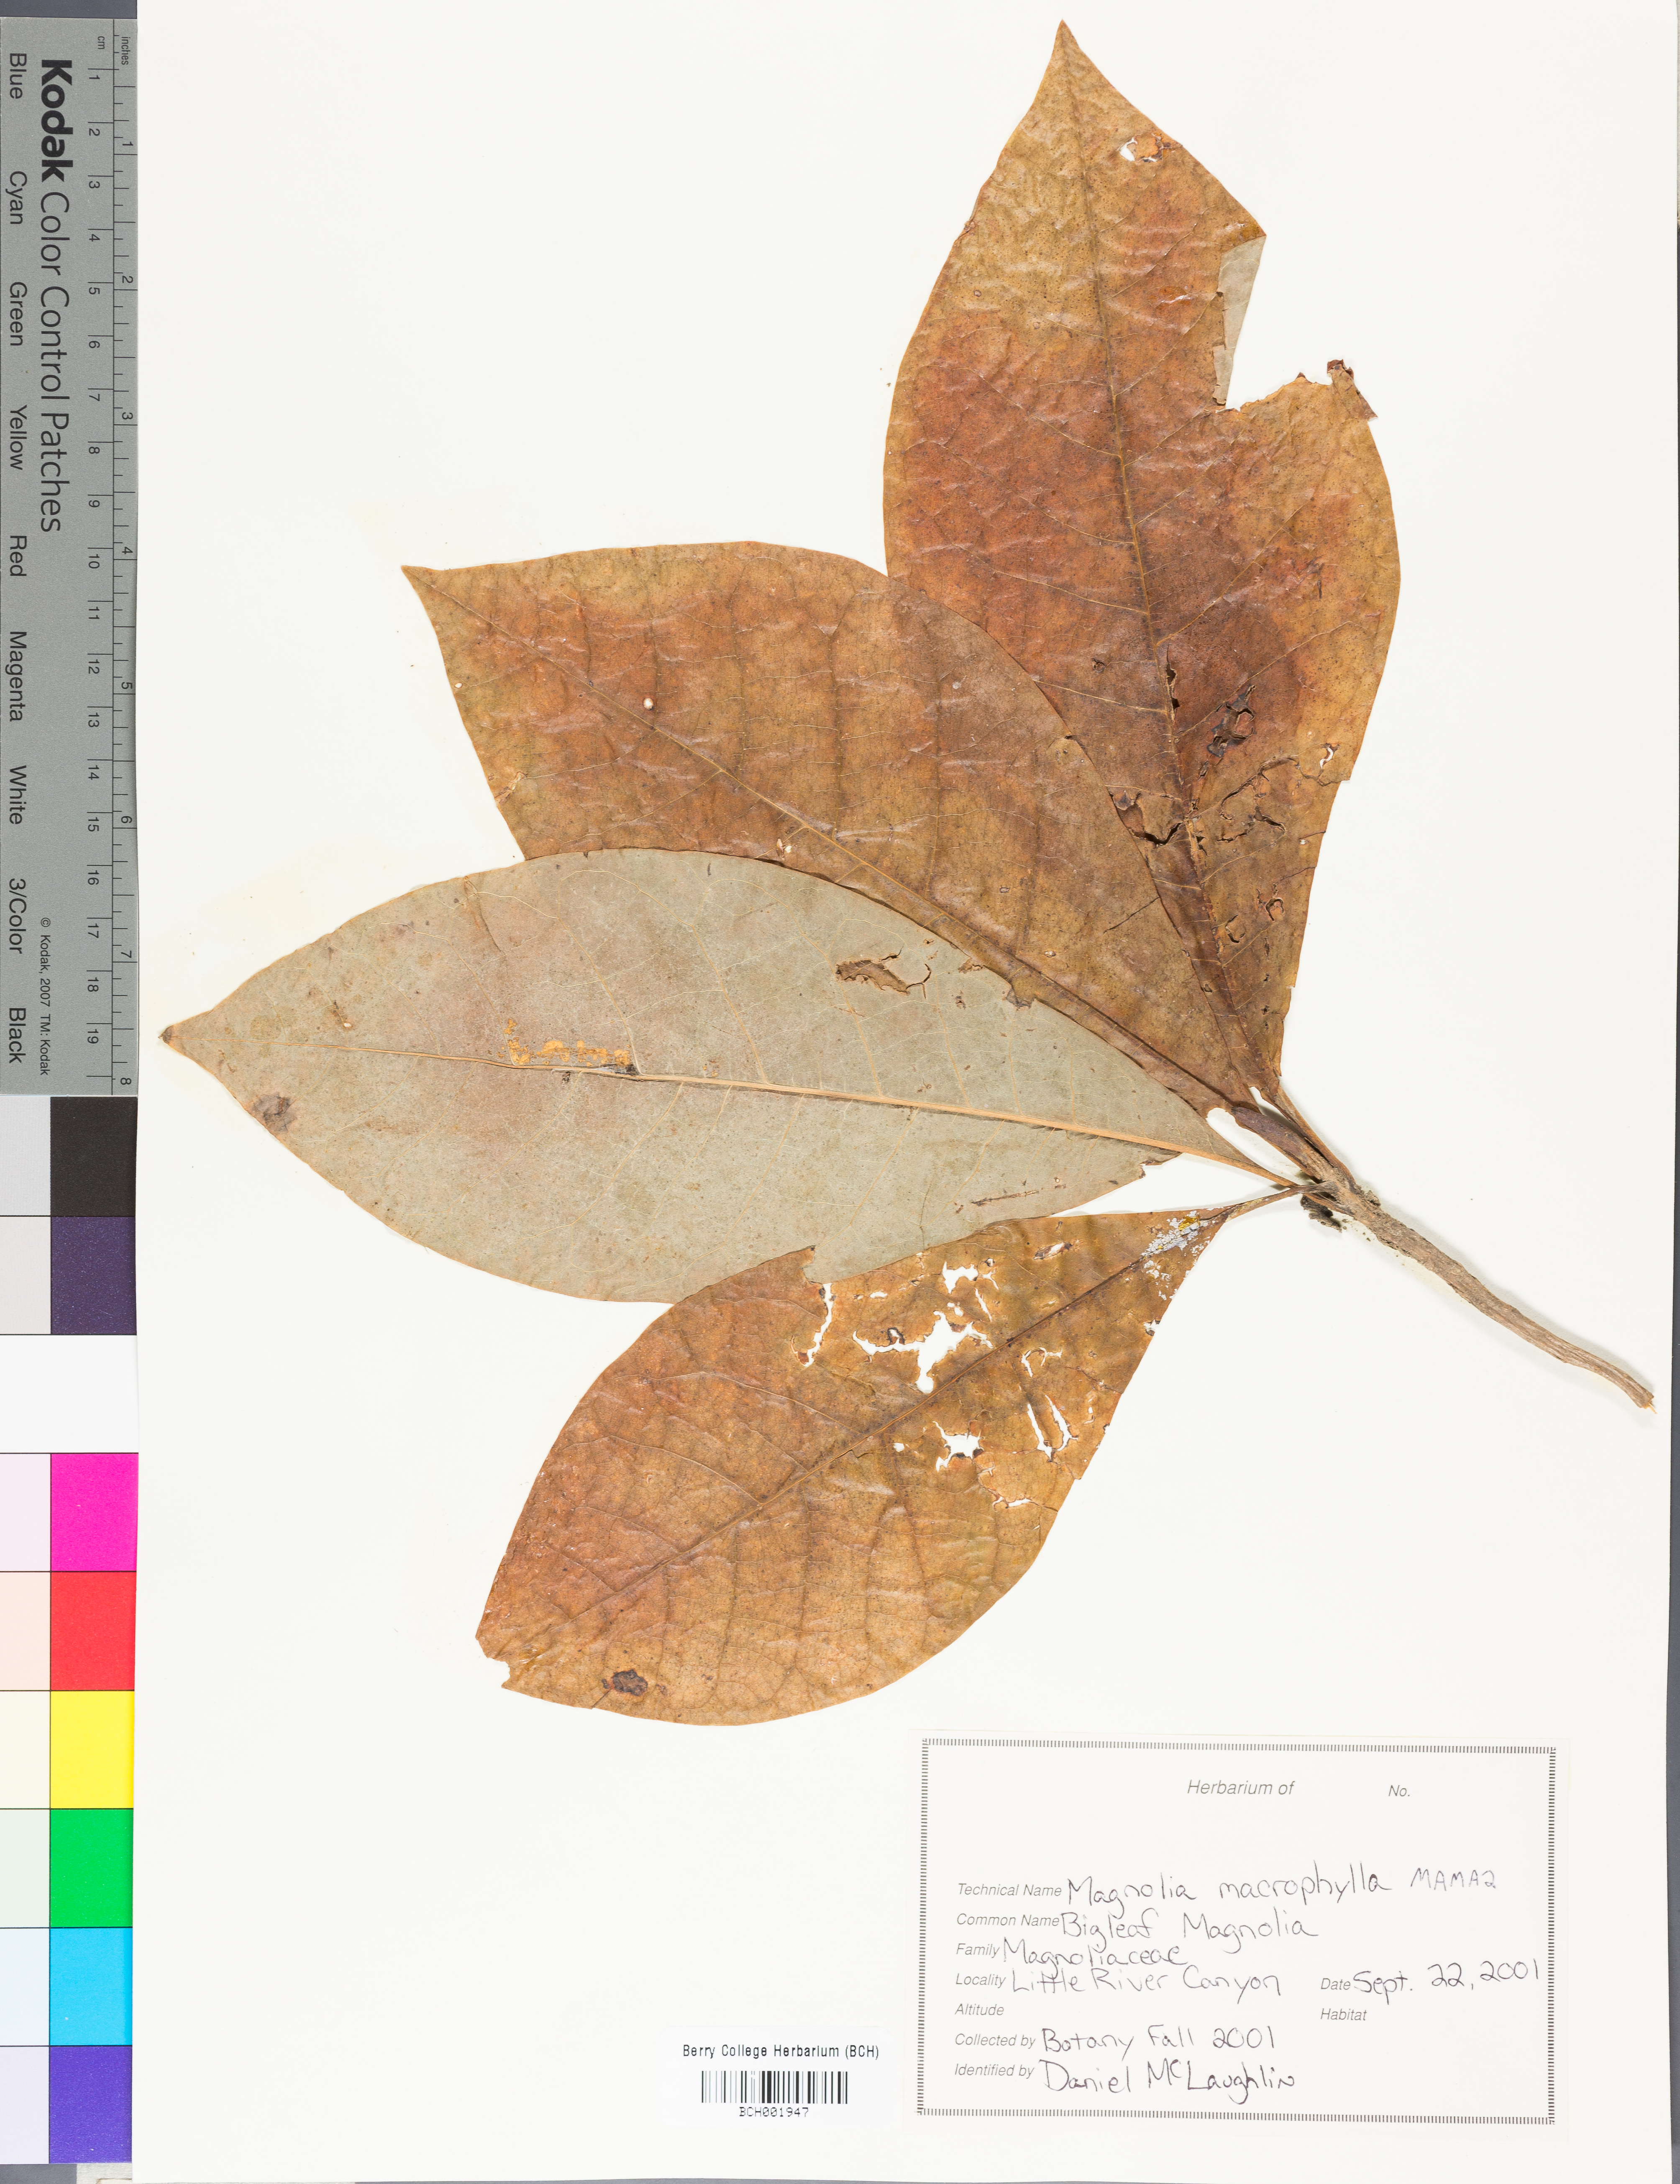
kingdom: Plantae
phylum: Tracheophyta
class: Magnoliopsida
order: Magnoliales
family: Magnoliaceae
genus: Magnolia
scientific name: Magnolia macrophylla
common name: Big-leaf magnolia
